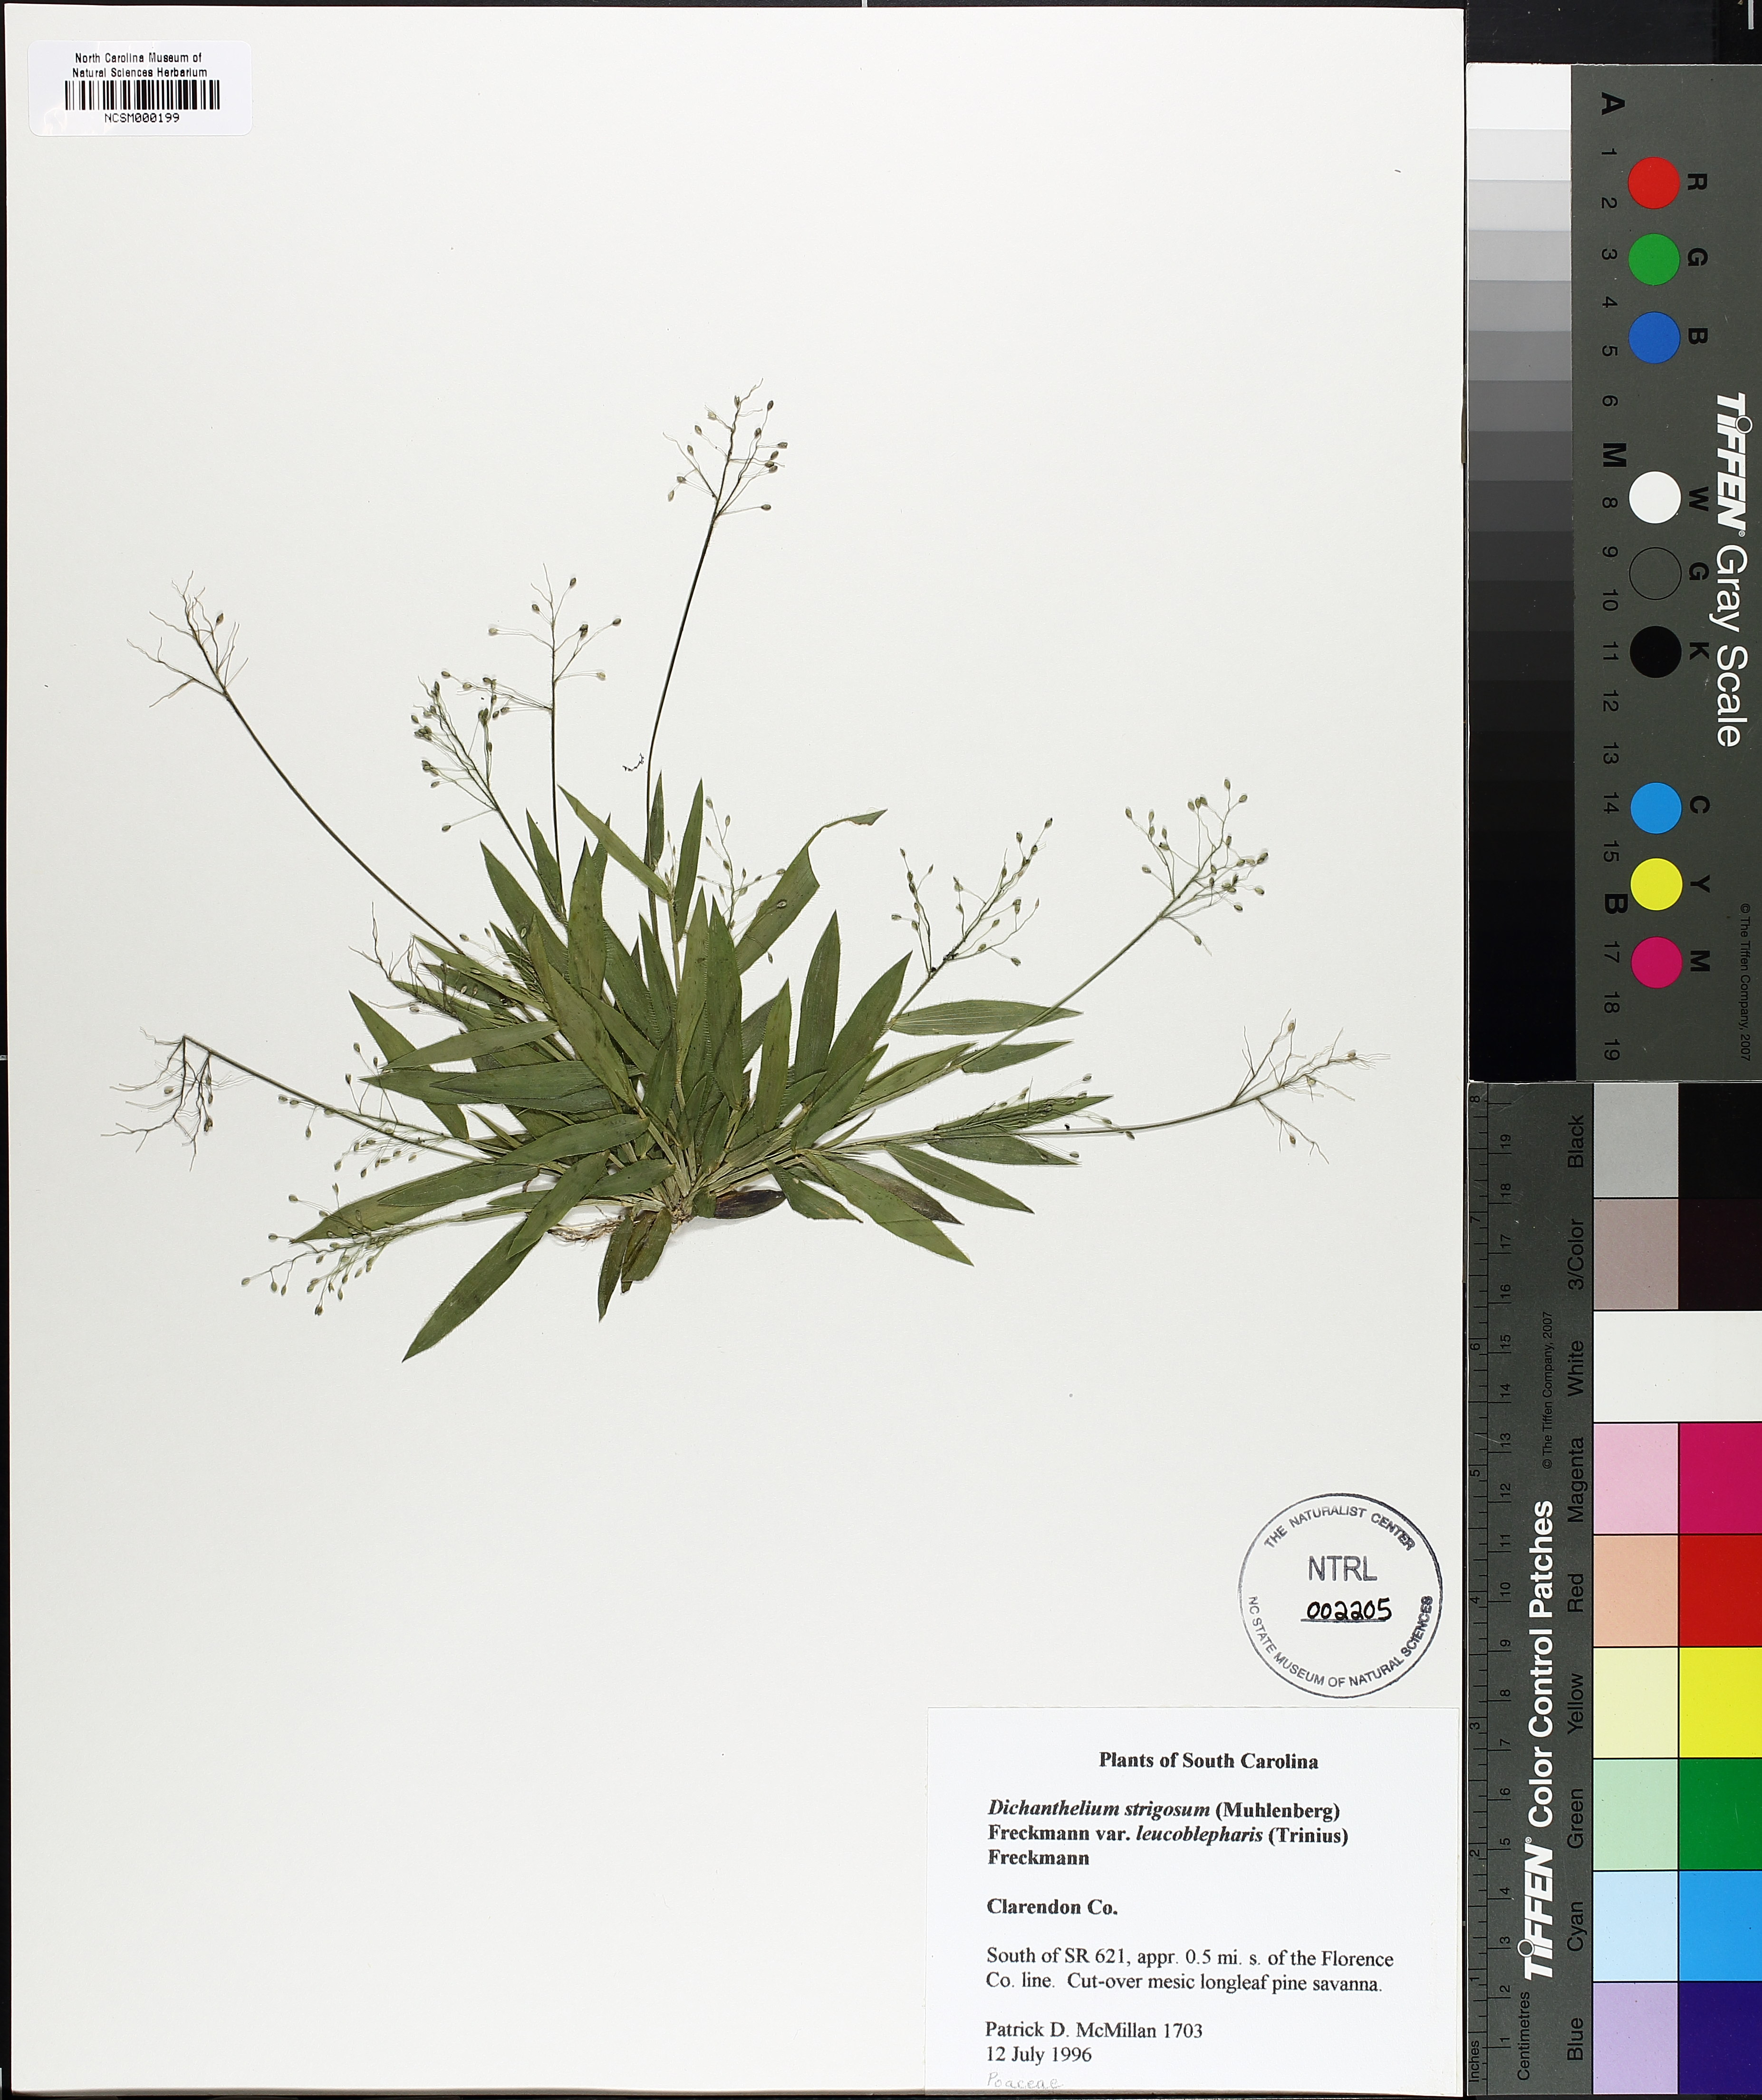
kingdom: Plantae
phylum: Tracheophyta
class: Liliopsida
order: Poales
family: Poaceae
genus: Dichanthelium
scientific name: Dichanthelium strigosum
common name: Cushion-tuft panic grass
